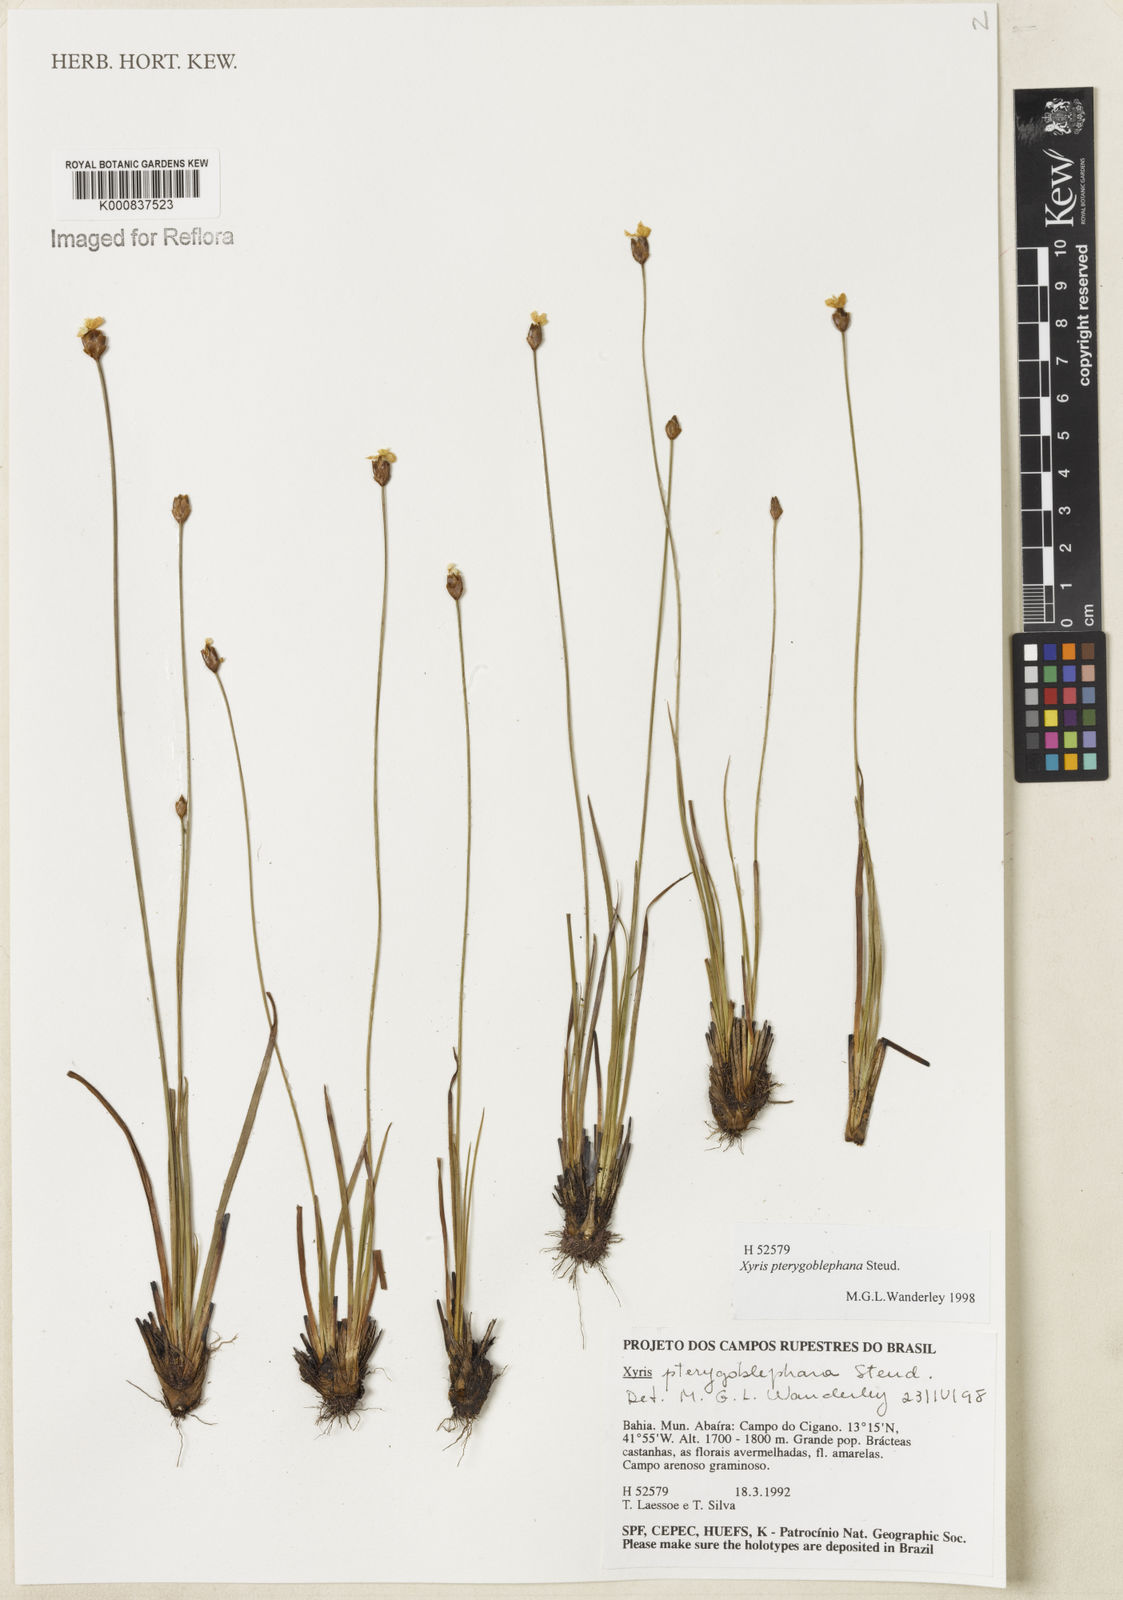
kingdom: Plantae
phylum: Tracheophyta
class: Liliopsida
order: Poales
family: Xyridaceae
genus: Xyris
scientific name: Xyris pterygoblephara
